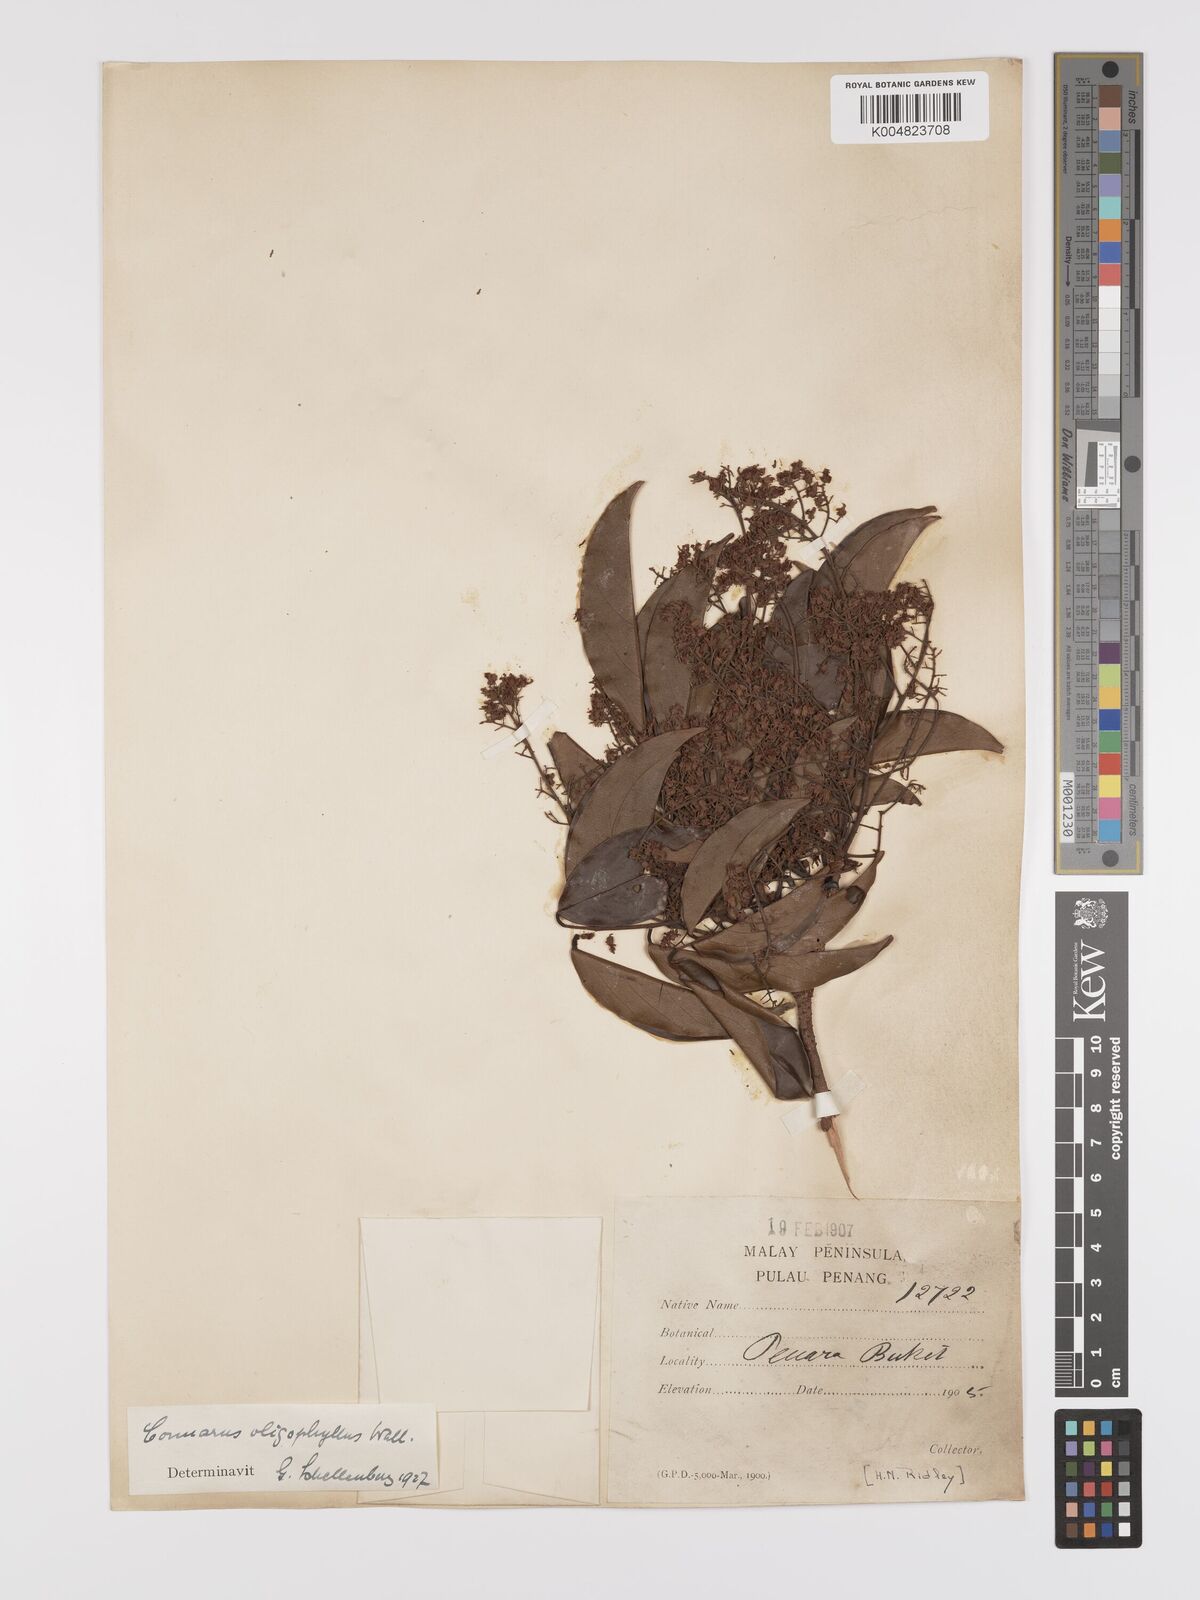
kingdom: Plantae
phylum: Tracheophyta
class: Magnoliopsida
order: Oxalidales
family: Connaraceae
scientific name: Connaraceae
